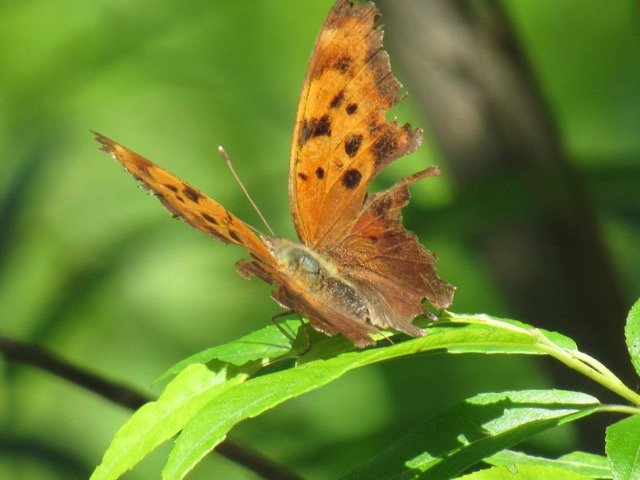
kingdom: Animalia
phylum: Arthropoda
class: Insecta
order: Lepidoptera
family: Nymphalidae
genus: Polygonia
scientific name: Polygonia interrogationis
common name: Question Mark
